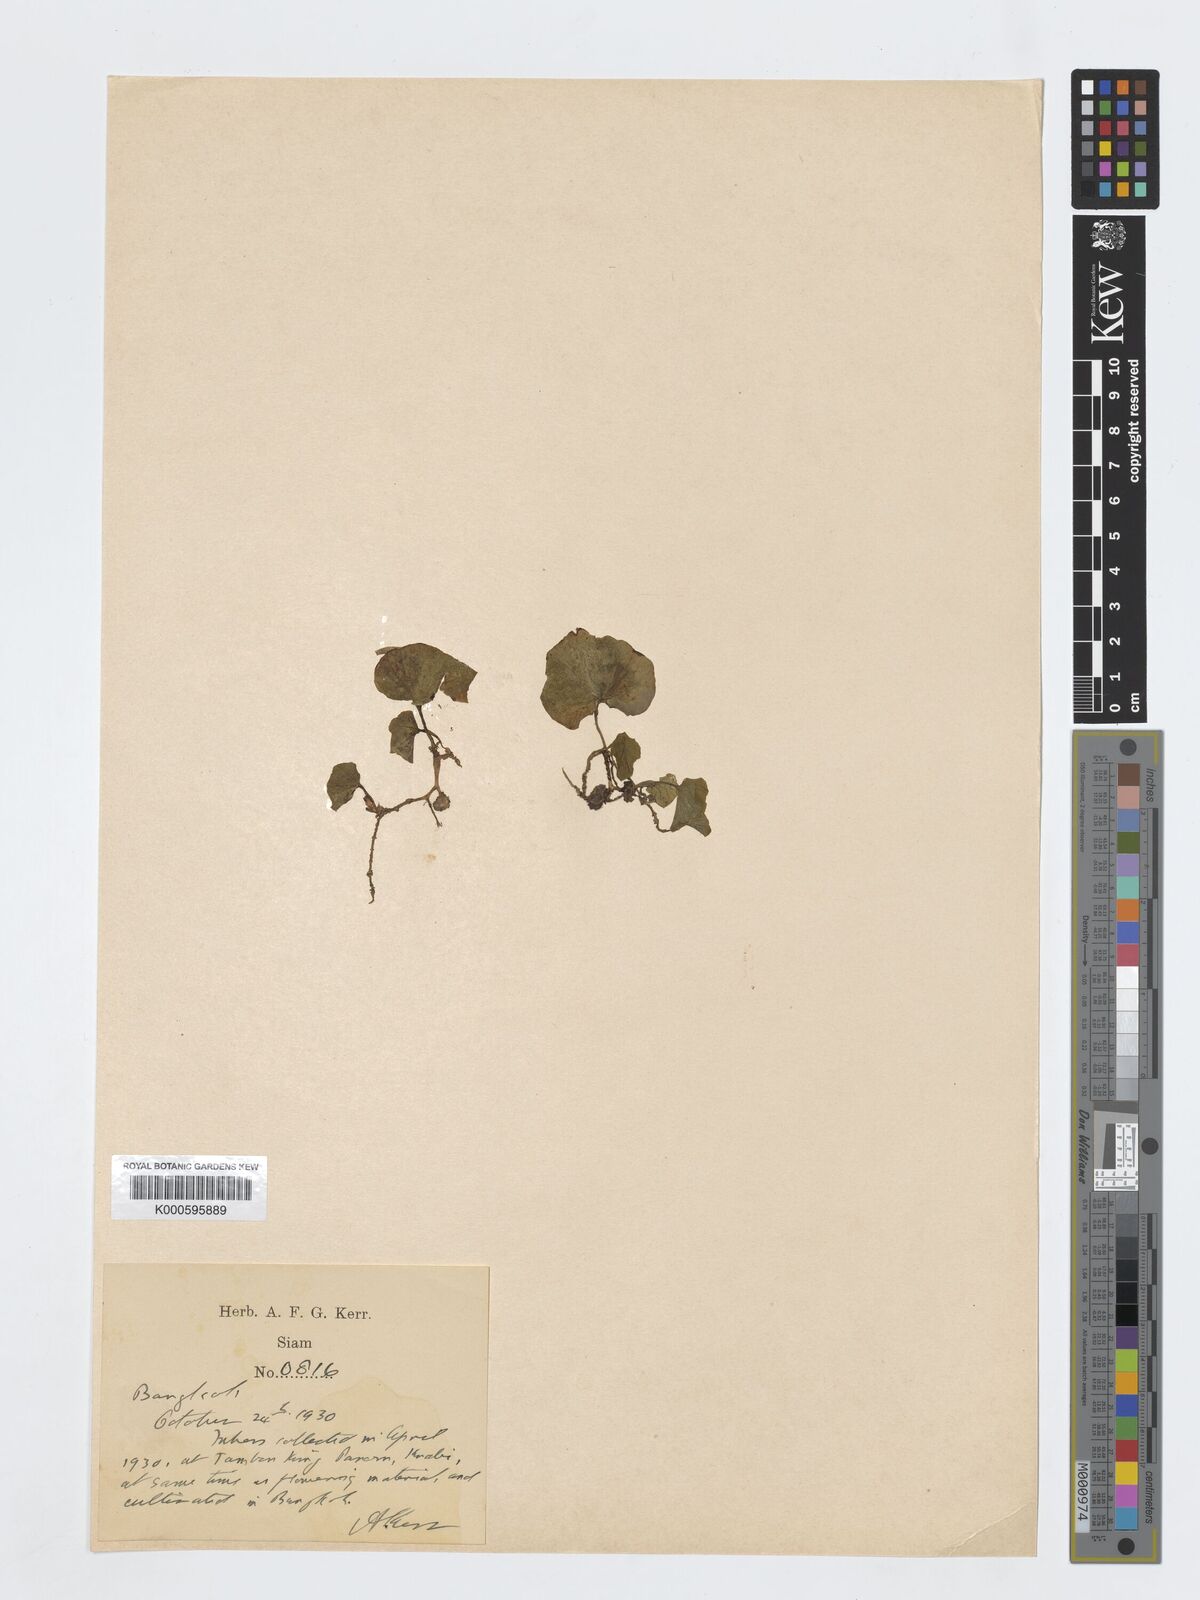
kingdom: Plantae
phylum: Tracheophyta
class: Liliopsida
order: Asparagales
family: Orchidaceae
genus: Nervilia
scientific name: Nervilia
